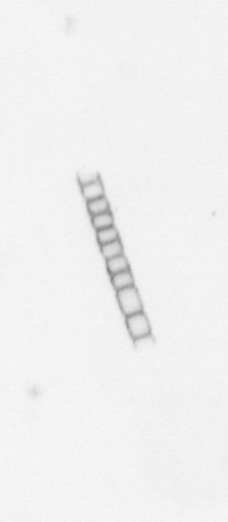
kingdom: Chromista
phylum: Ochrophyta
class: Bacillariophyceae
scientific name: Bacillariophyceae
